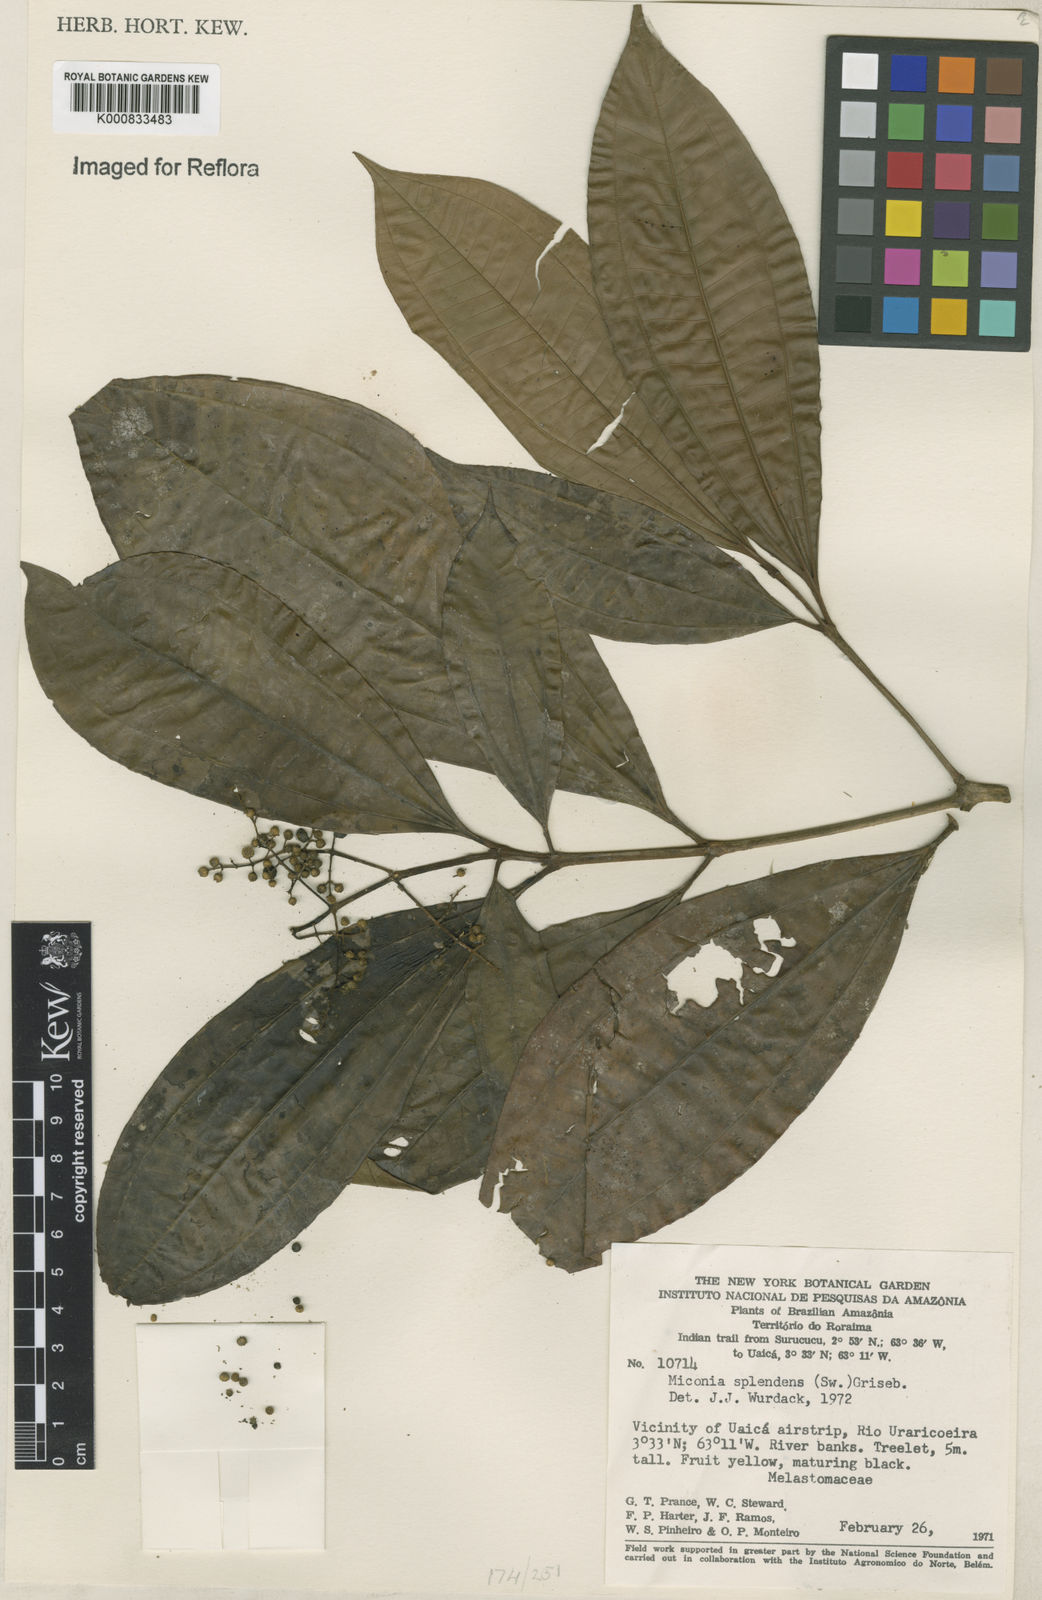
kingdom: Plantae
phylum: Tracheophyta
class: Magnoliopsida
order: Myrtales
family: Melastomataceae
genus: Miconia
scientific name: Miconia splendens
